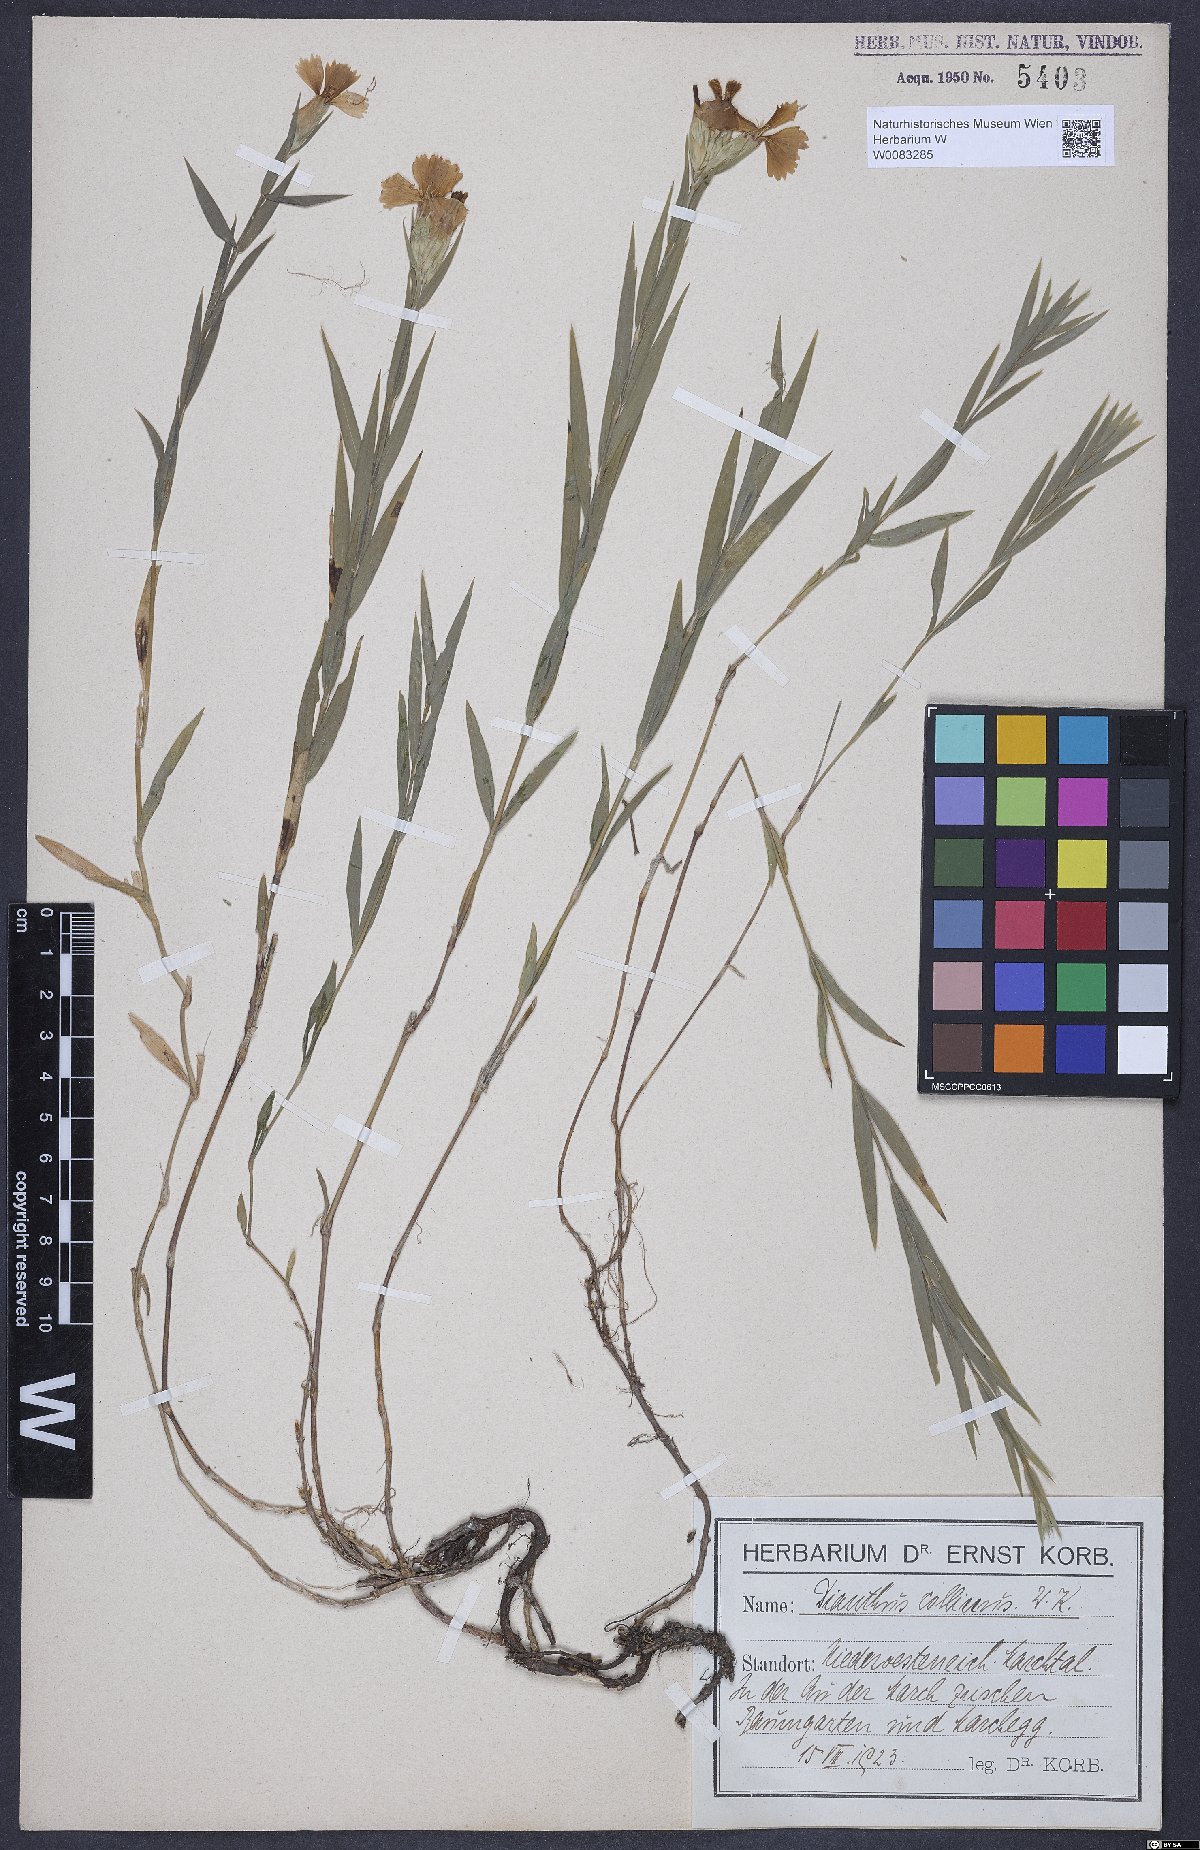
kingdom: Plantae
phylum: Tracheophyta
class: Magnoliopsida
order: Caryophyllales
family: Caryophyllaceae
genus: Dianthus
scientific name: Dianthus collinus
